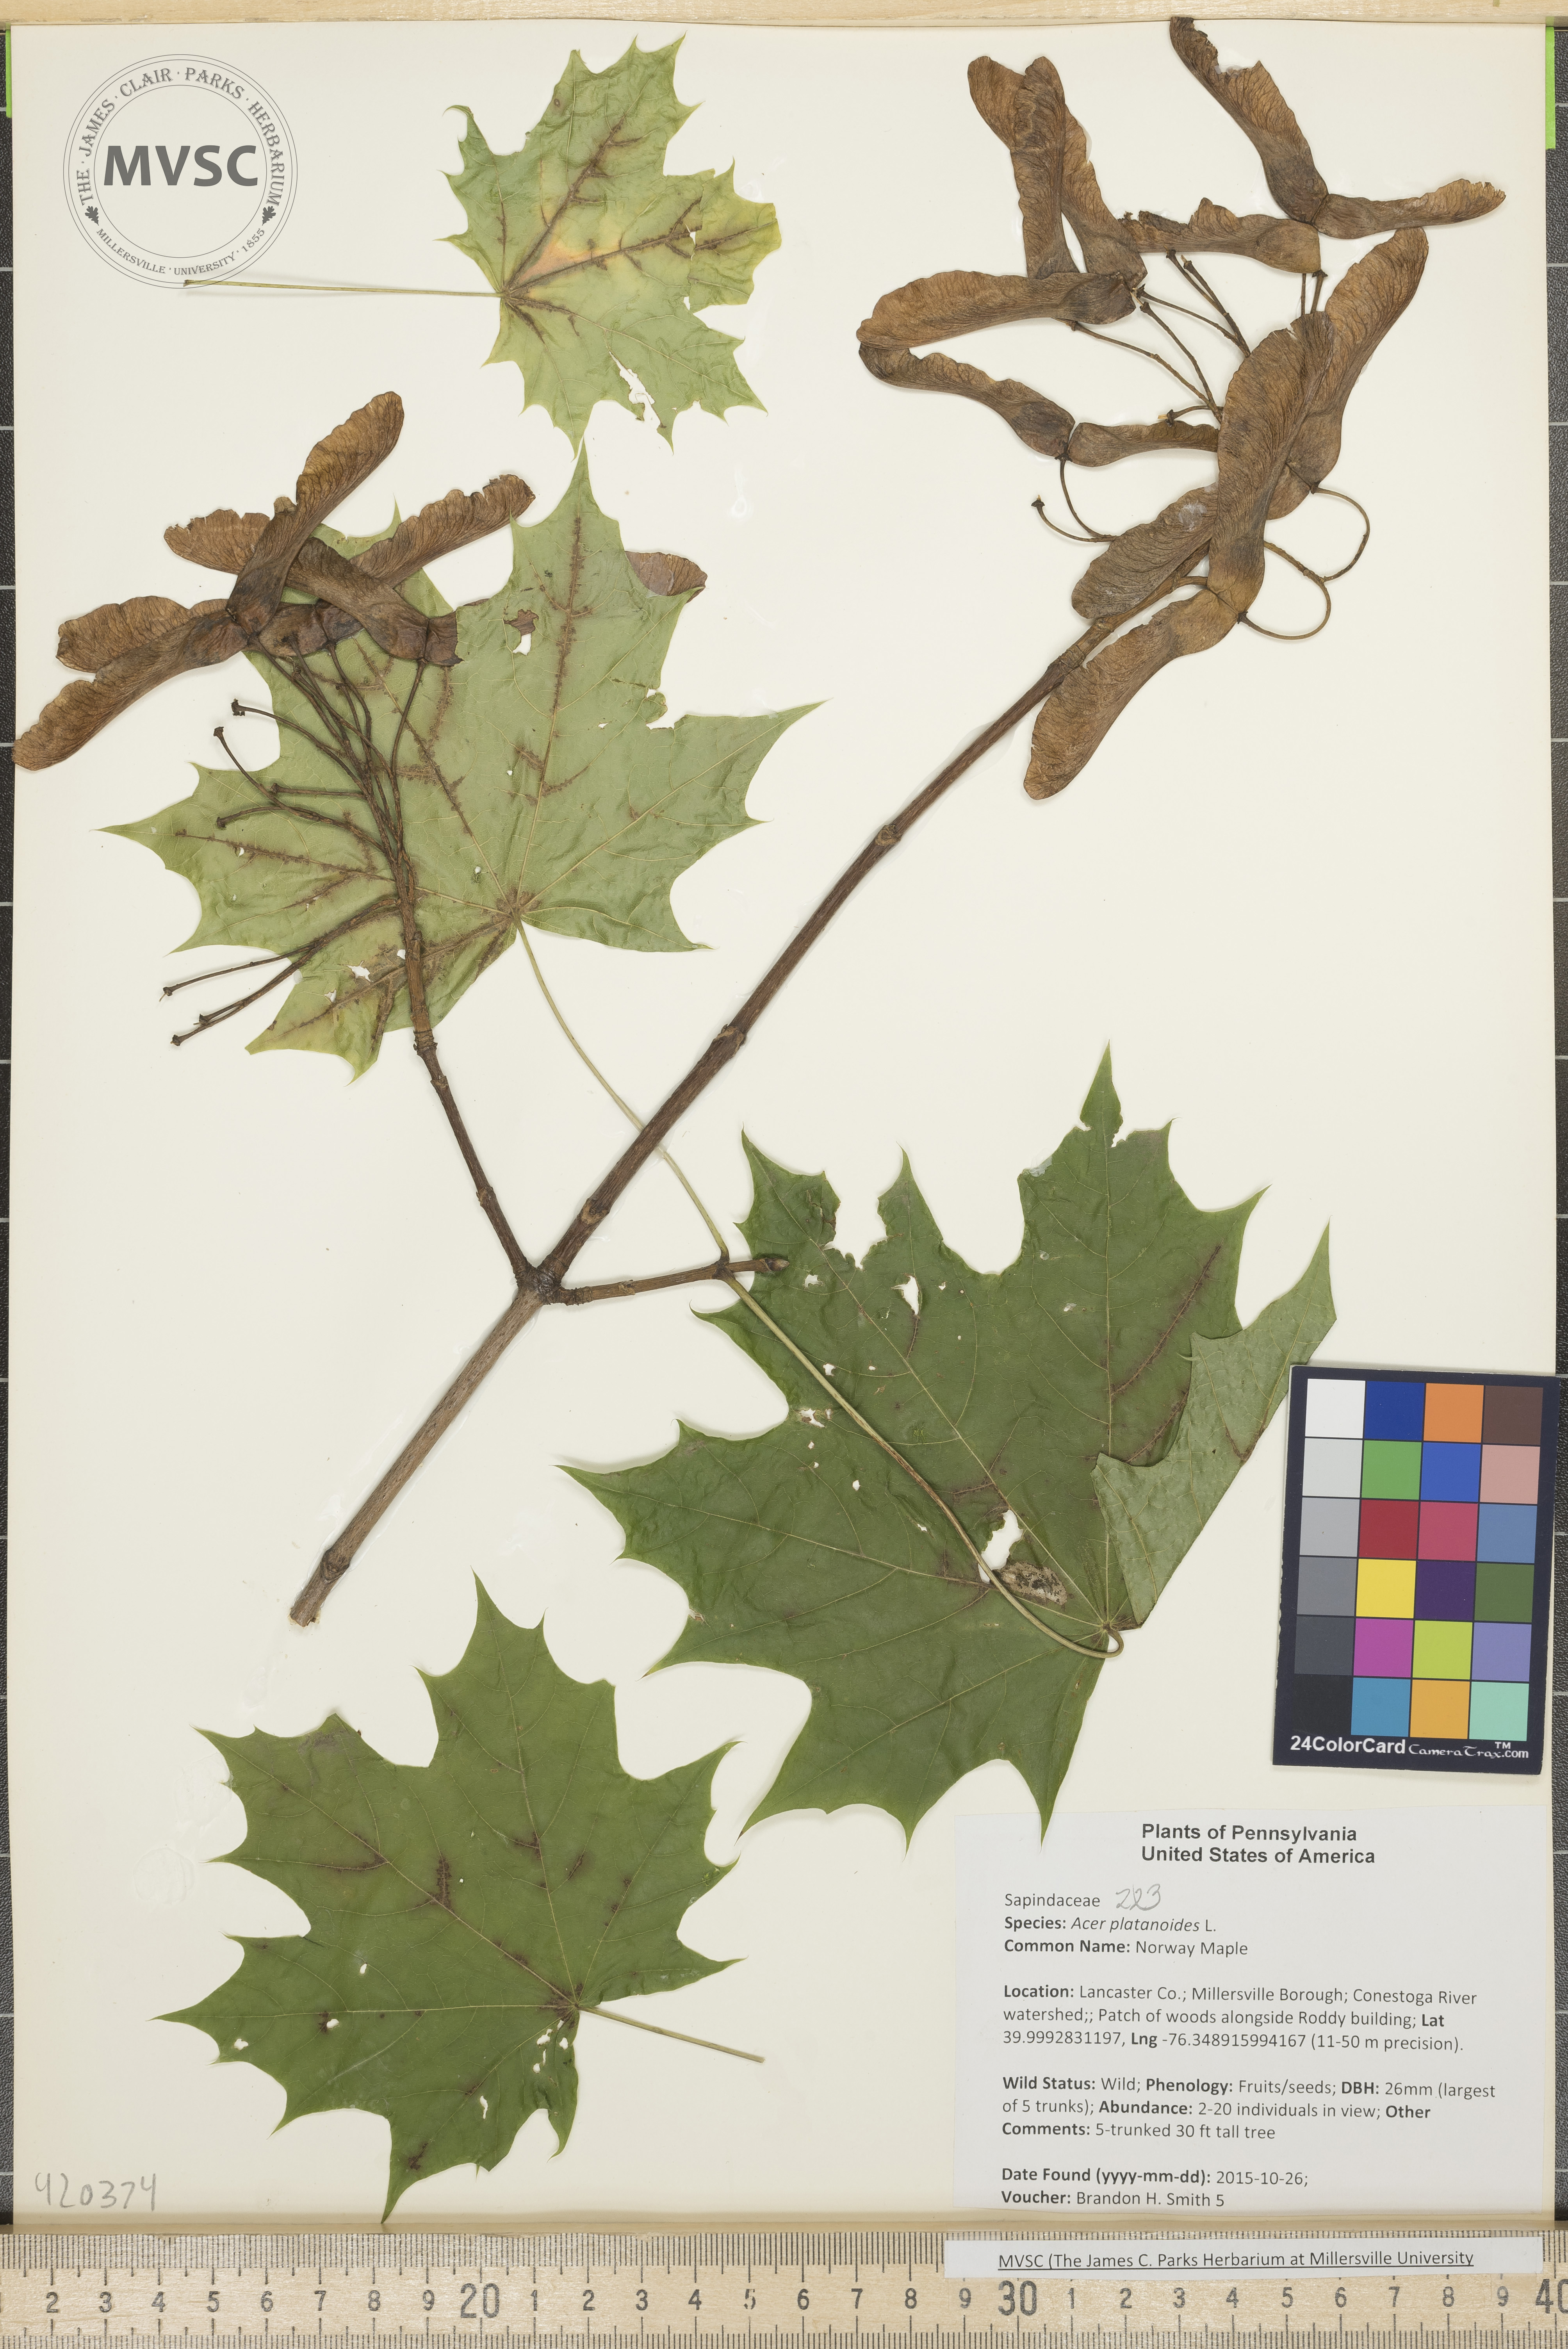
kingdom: Plantae
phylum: Tracheophyta
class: Magnoliopsida
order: Sapindales
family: Sapindaceae
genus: Acer
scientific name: Acer platanoides
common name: Norway Maple
